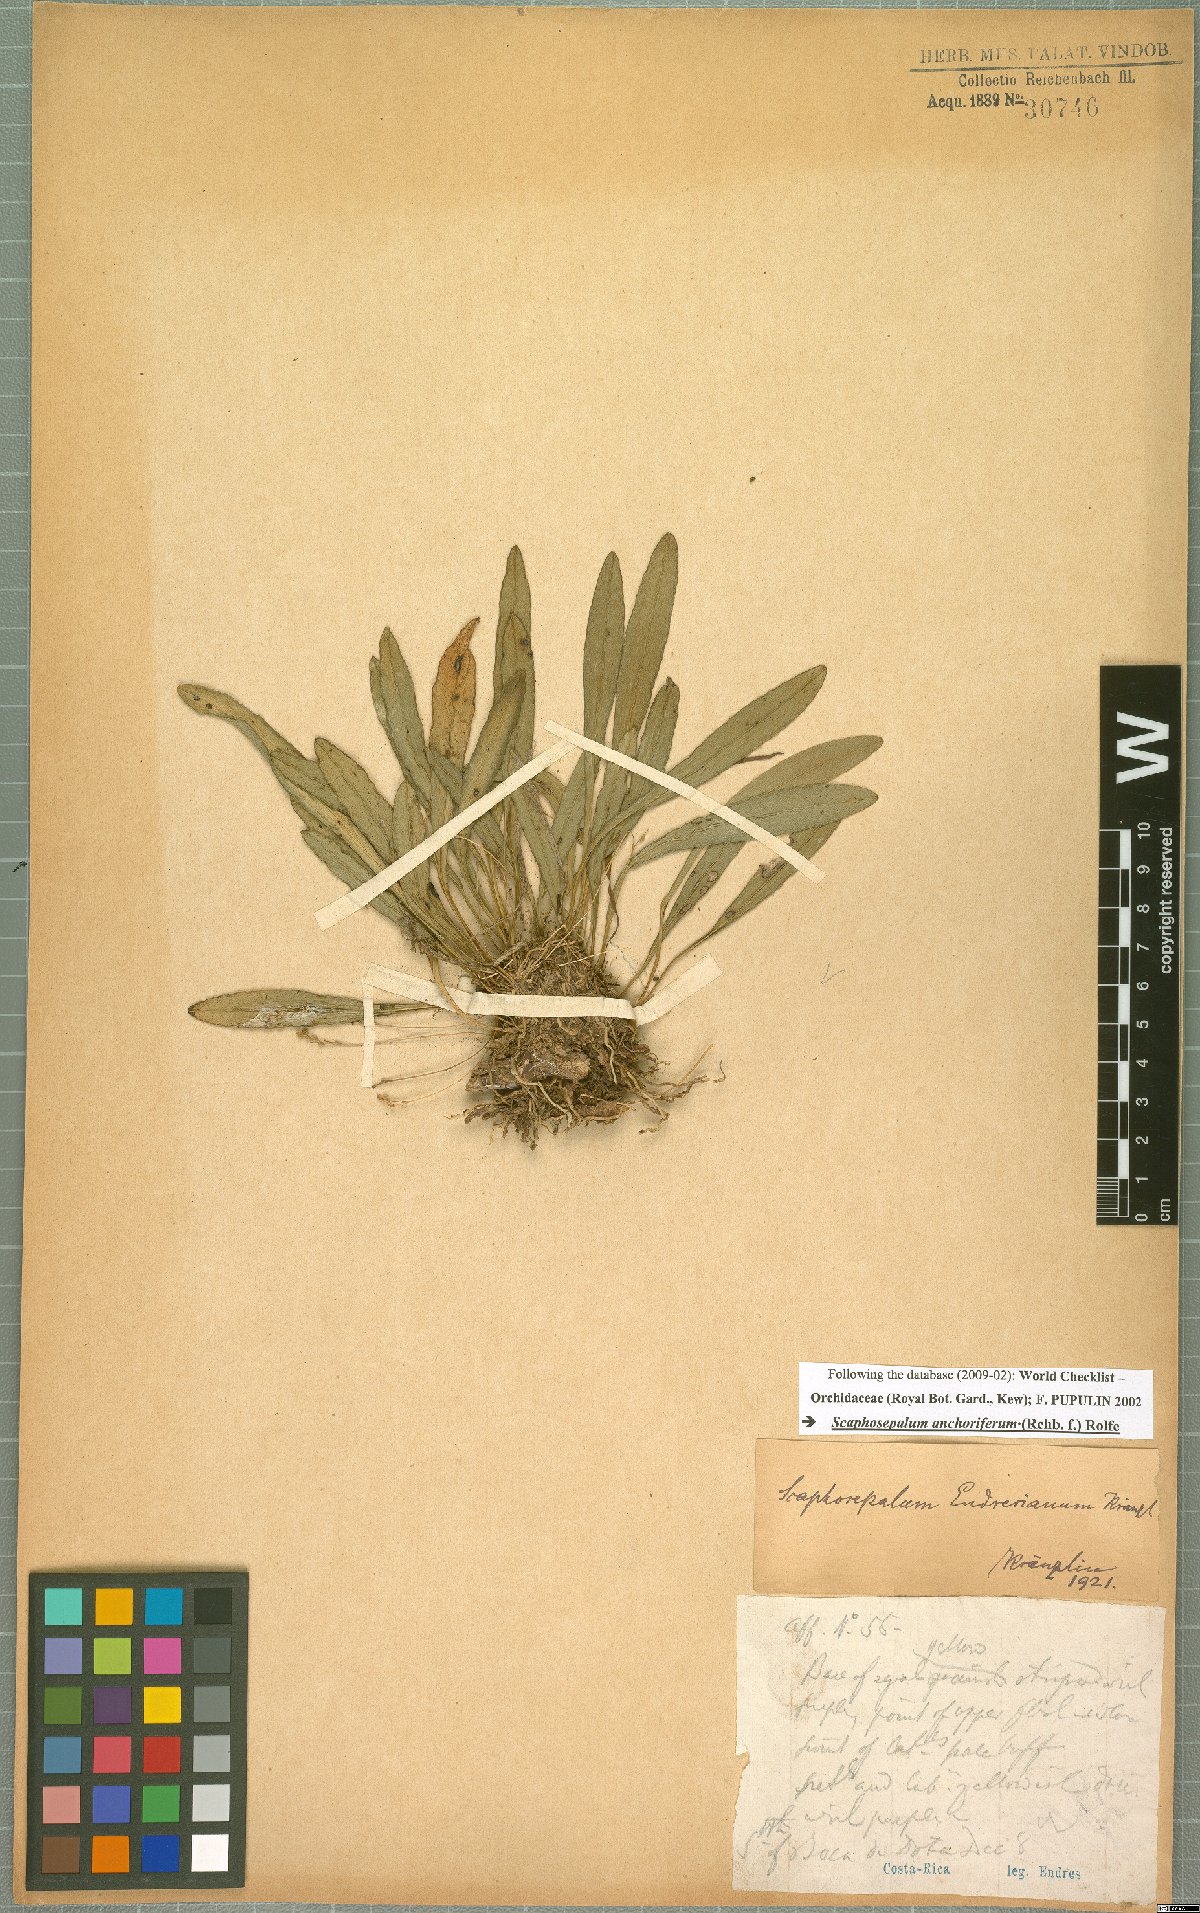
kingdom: Plantae
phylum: Tracheophyta
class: Liliopsida
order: Asparagales
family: Orchidaceae
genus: Scaphosepalum
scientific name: Scaphosepalum anchoriferum
